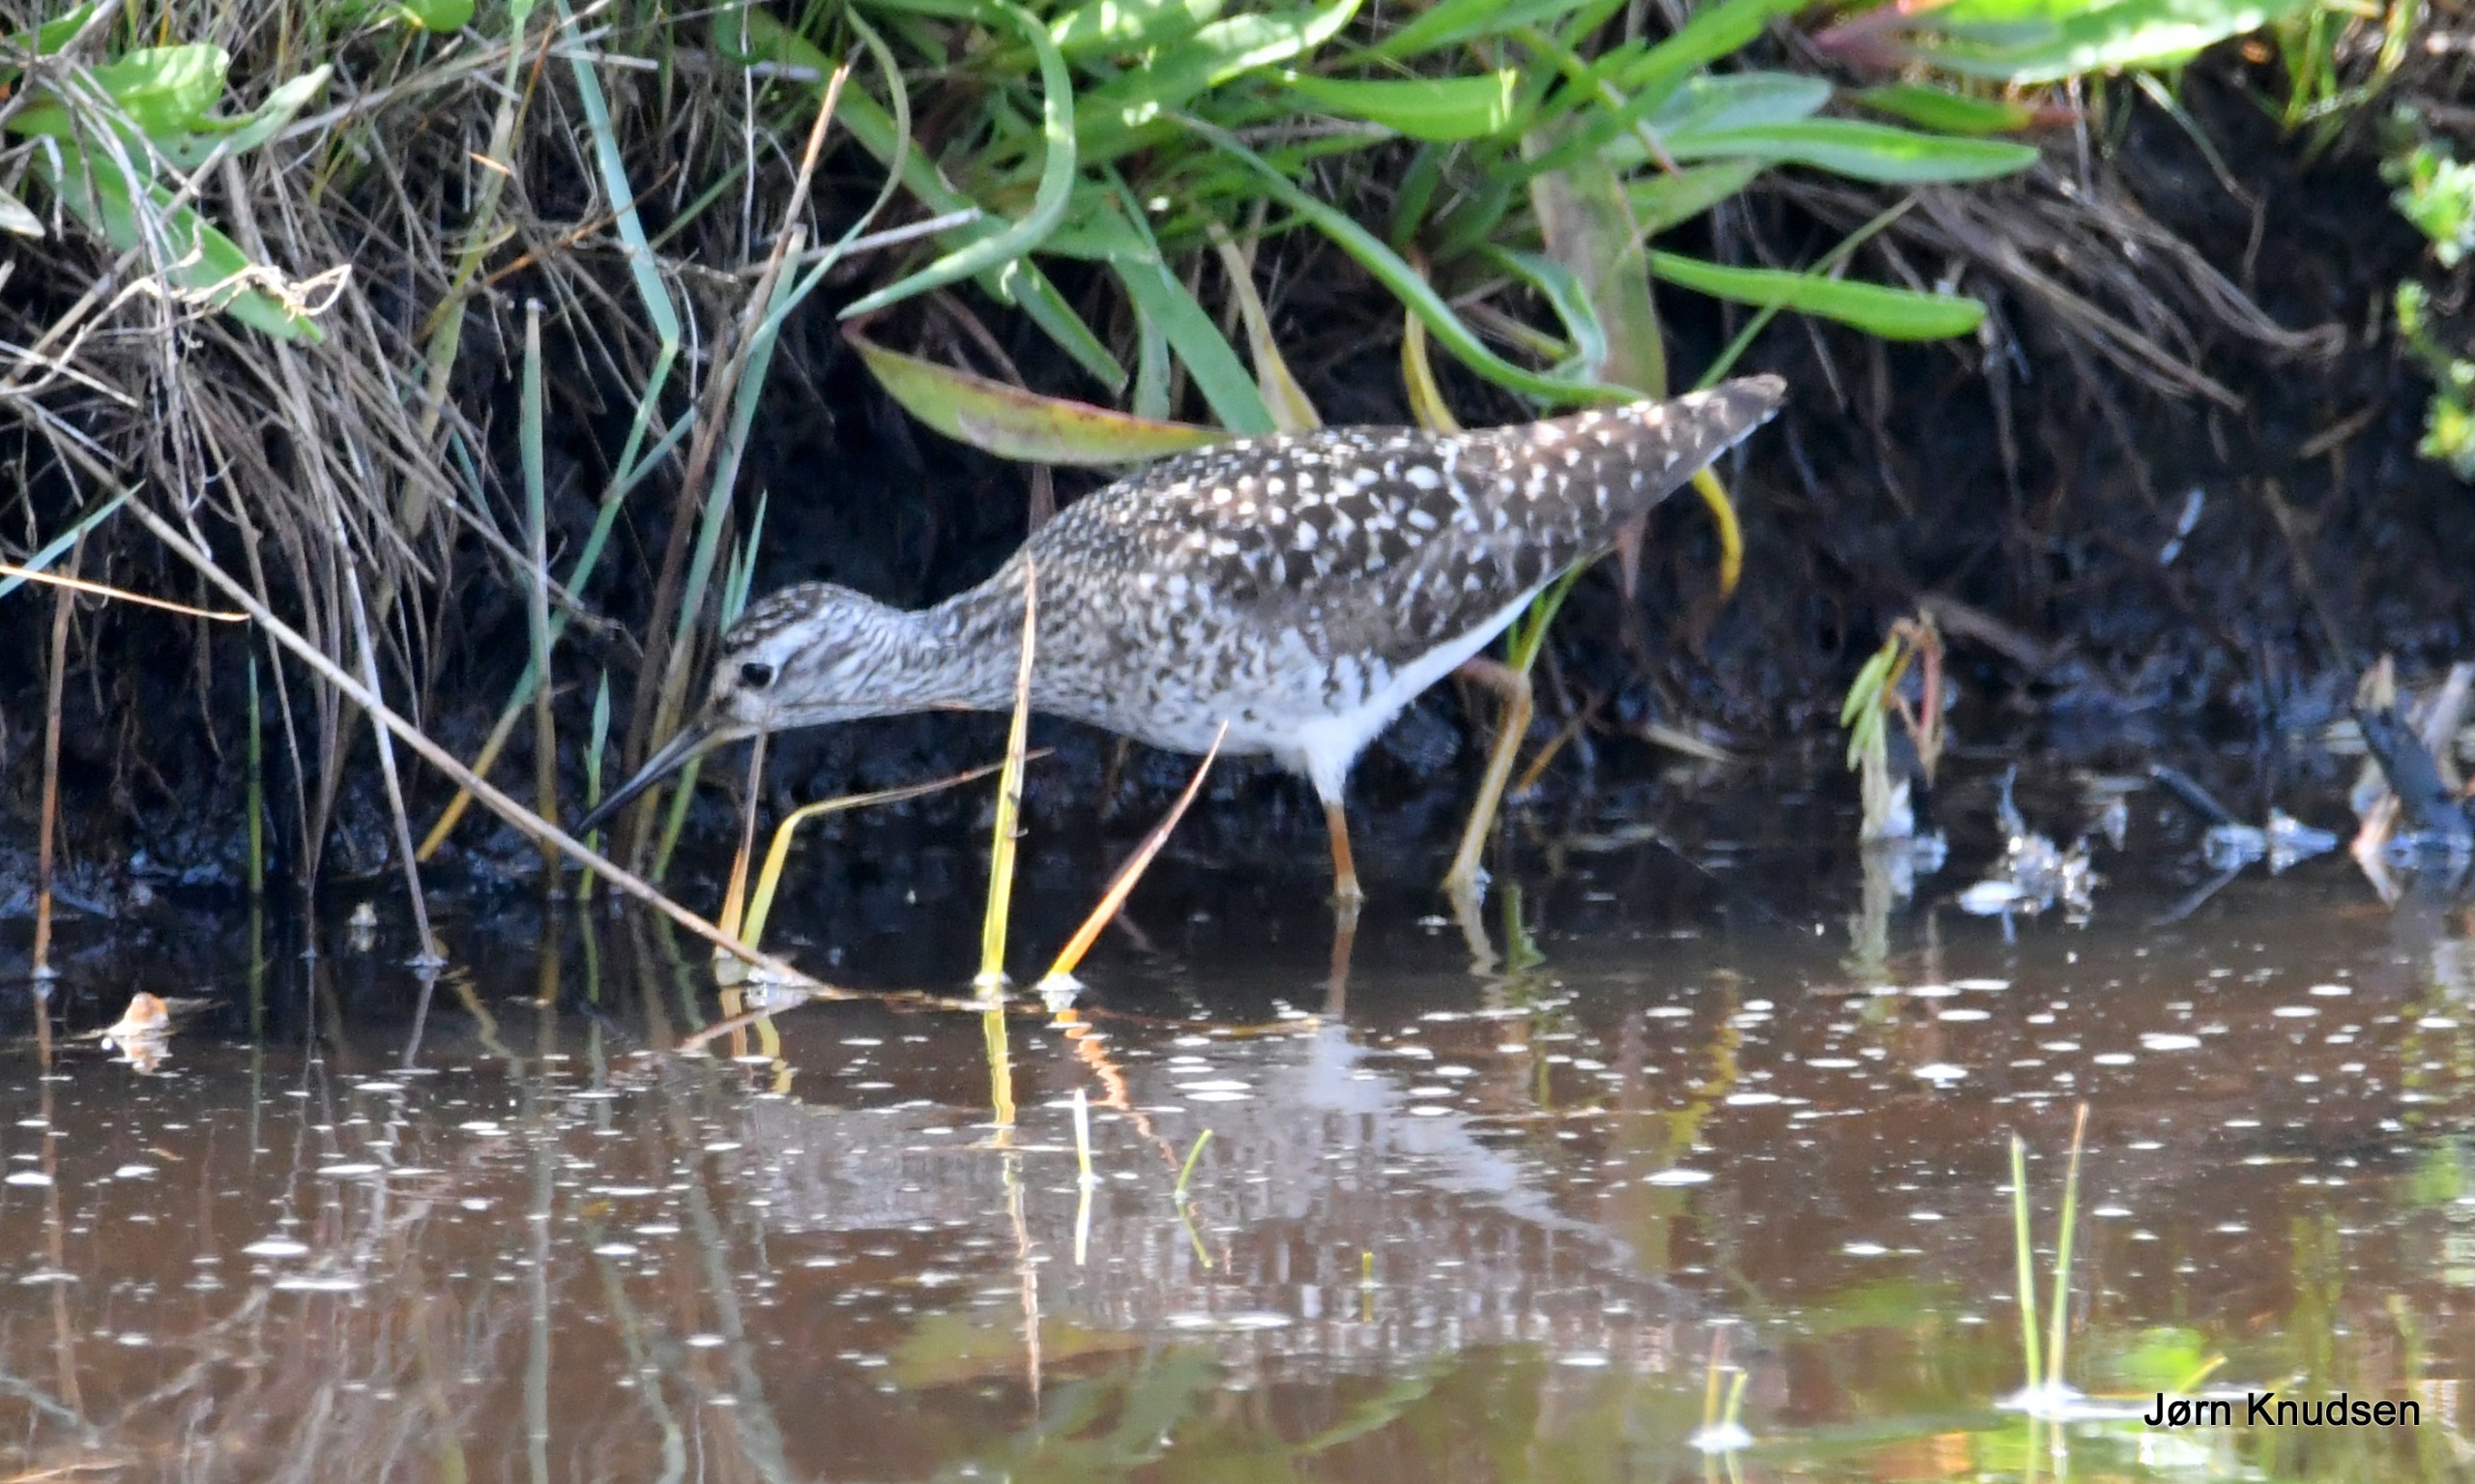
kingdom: Animalia
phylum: Chordata
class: Aves
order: Charadriiformes
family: Scolopacidae
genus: Tringa
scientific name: Tringa glareola
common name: Tinksmed
